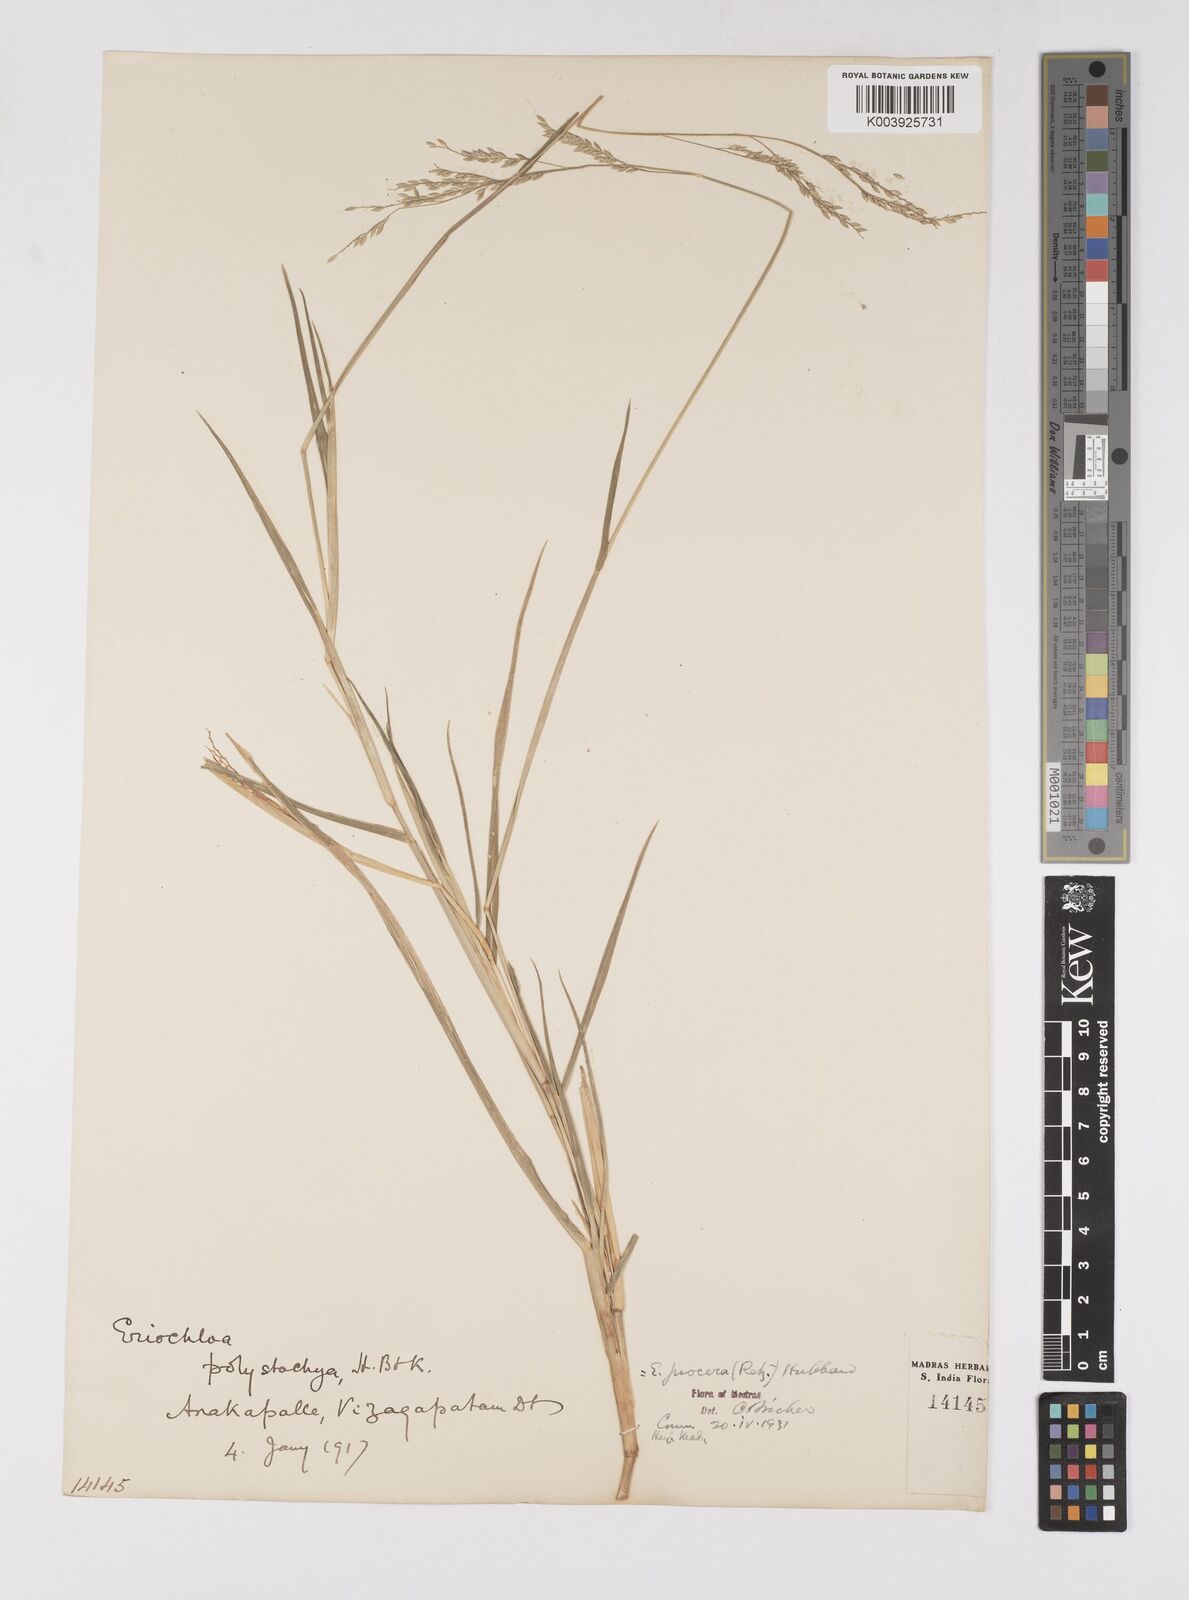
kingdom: Plantae
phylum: Tracheophyta
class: Liliopsida
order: Poales
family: Poaceae
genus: Eriochloa
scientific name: Eriochloa procera
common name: Spring grass
